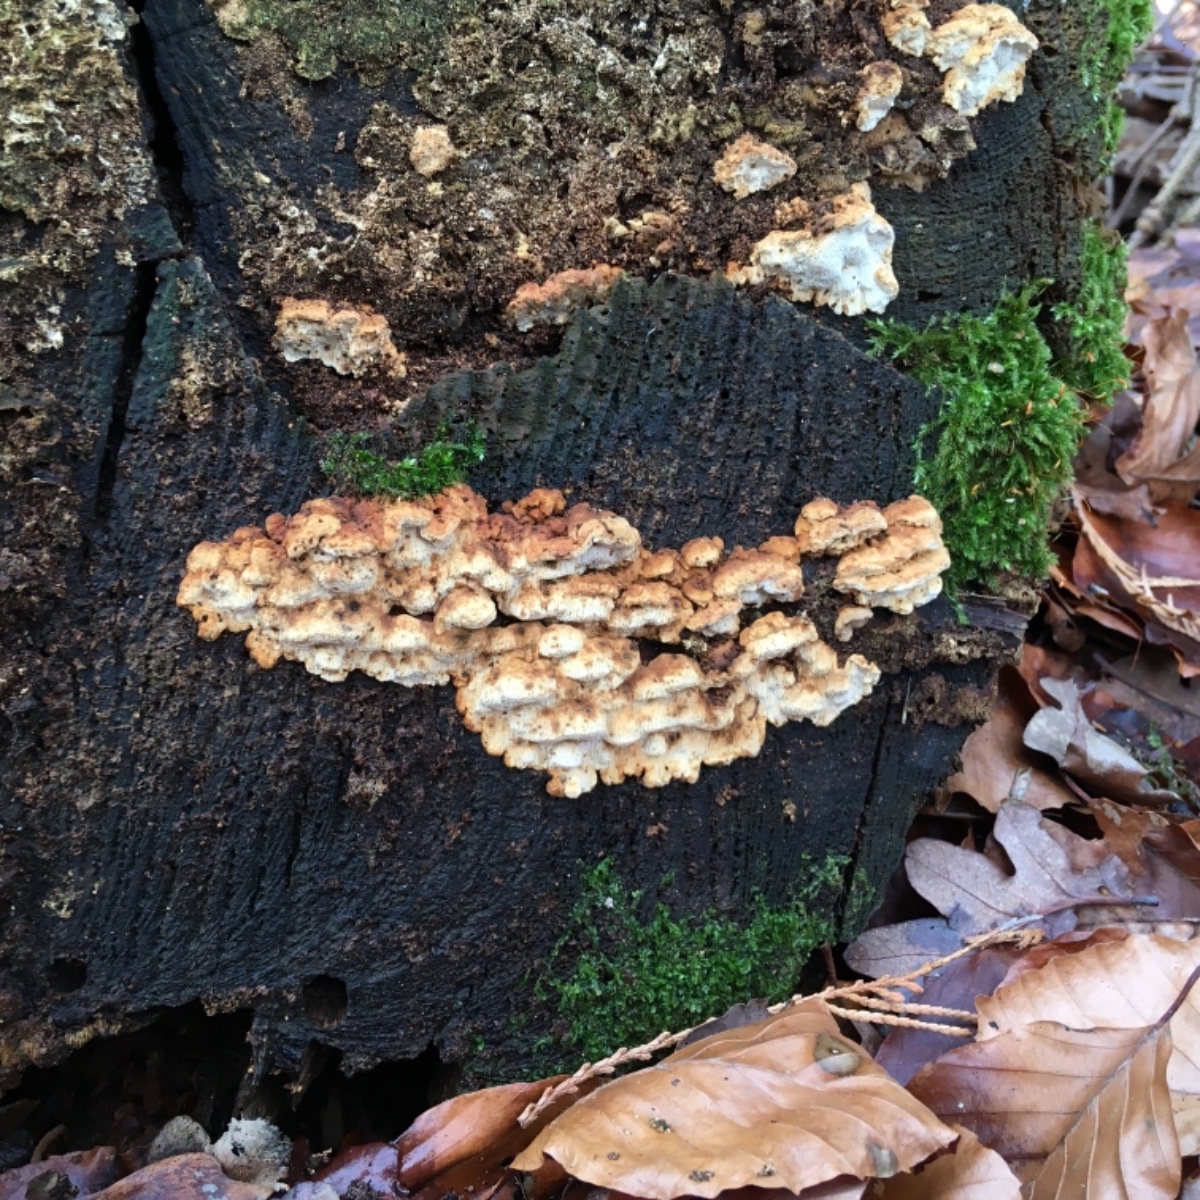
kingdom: Fungi
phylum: Basidiomycota
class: Agaricomycetes
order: Polyporales
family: Fomitopsidaceae
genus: Neoantrodia
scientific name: Neoantrodia serialis
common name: række-sejporesvamp
